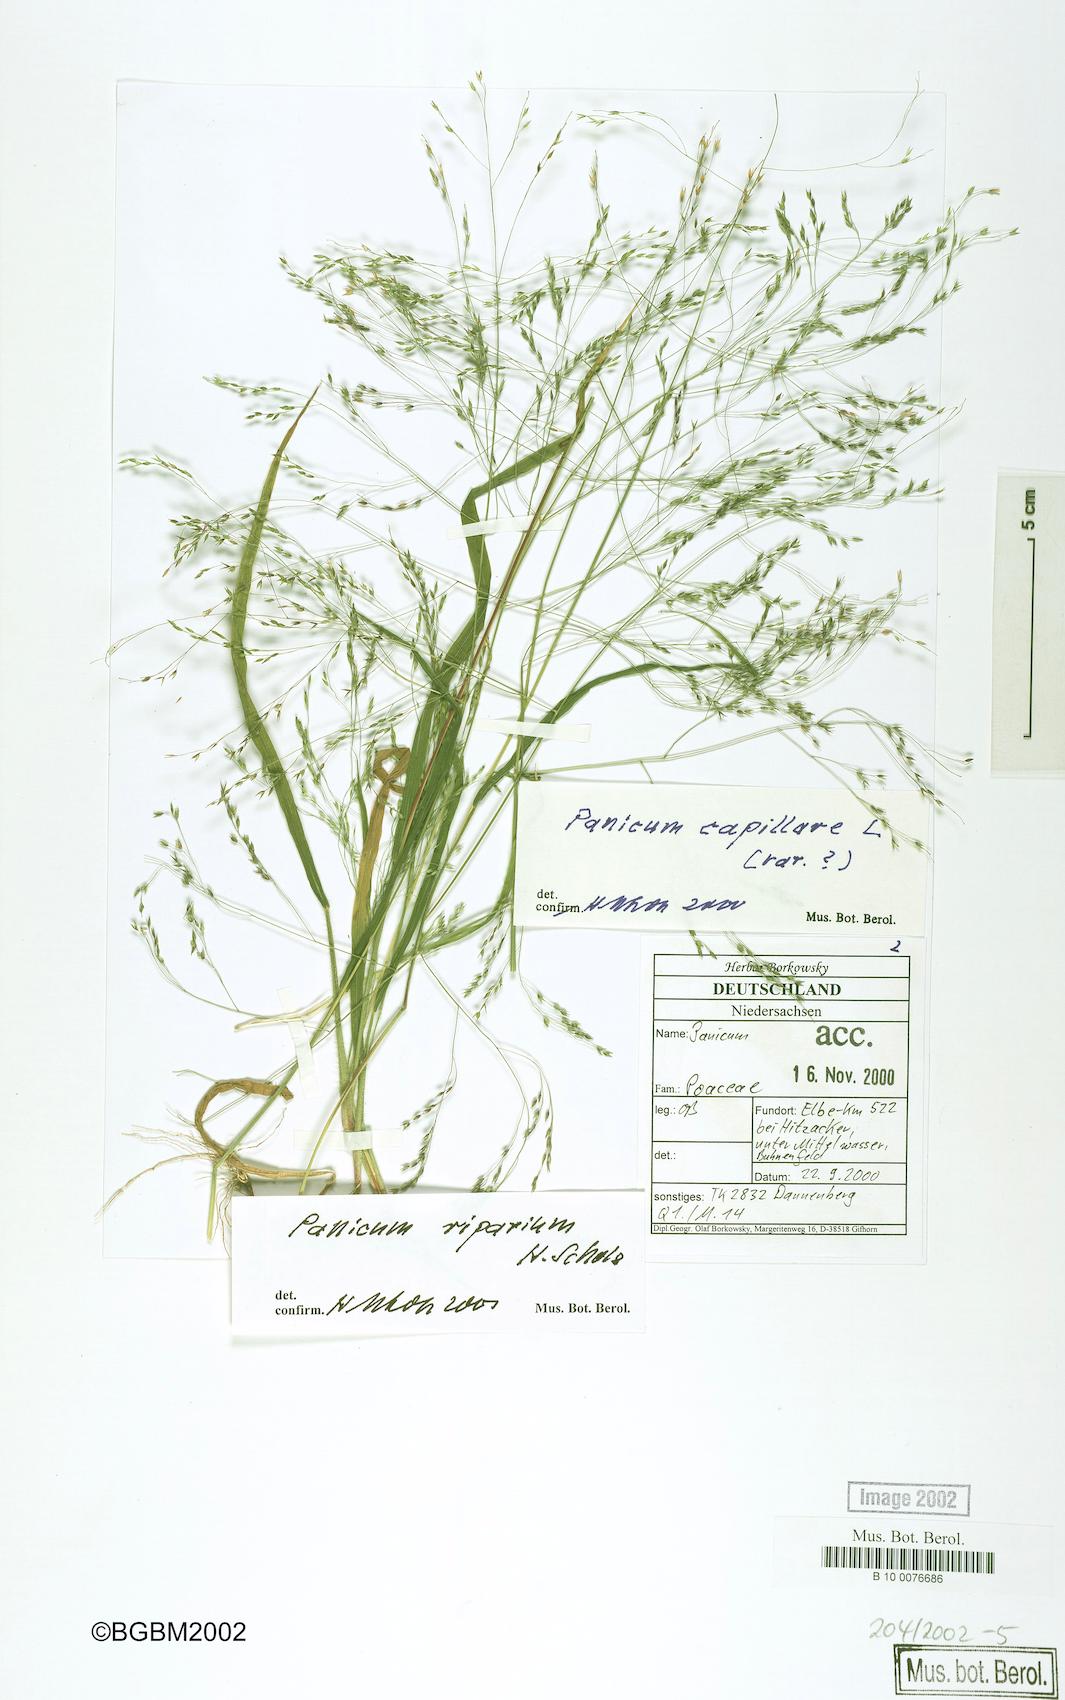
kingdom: Plantae
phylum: Tracheophyta
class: Liliopsida
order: Poales
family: Poaceae
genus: Panicum
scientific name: Panicum capillare
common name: Witch-grass
